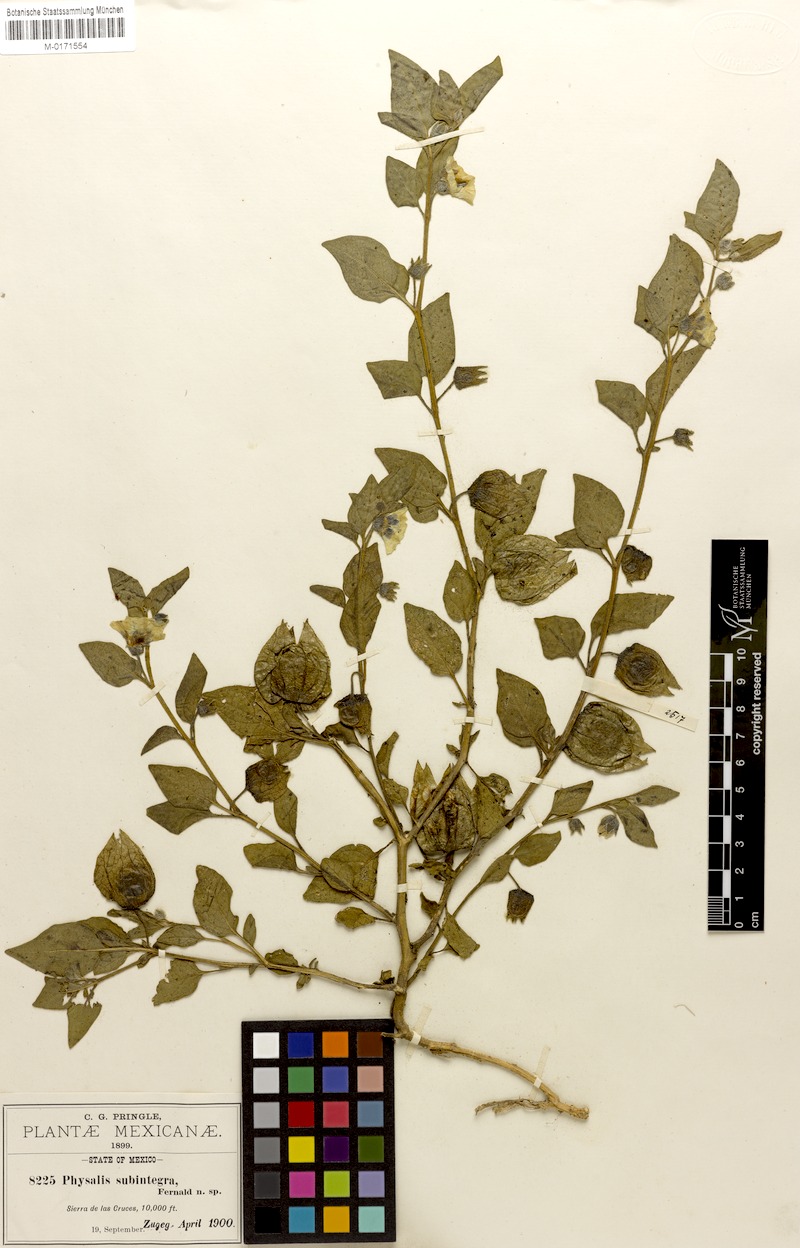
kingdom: Plantae
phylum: Tracheophyta
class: Magnoliopsida
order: Solanales
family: Solanaceae
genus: Physalis
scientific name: Physalis orizabae
